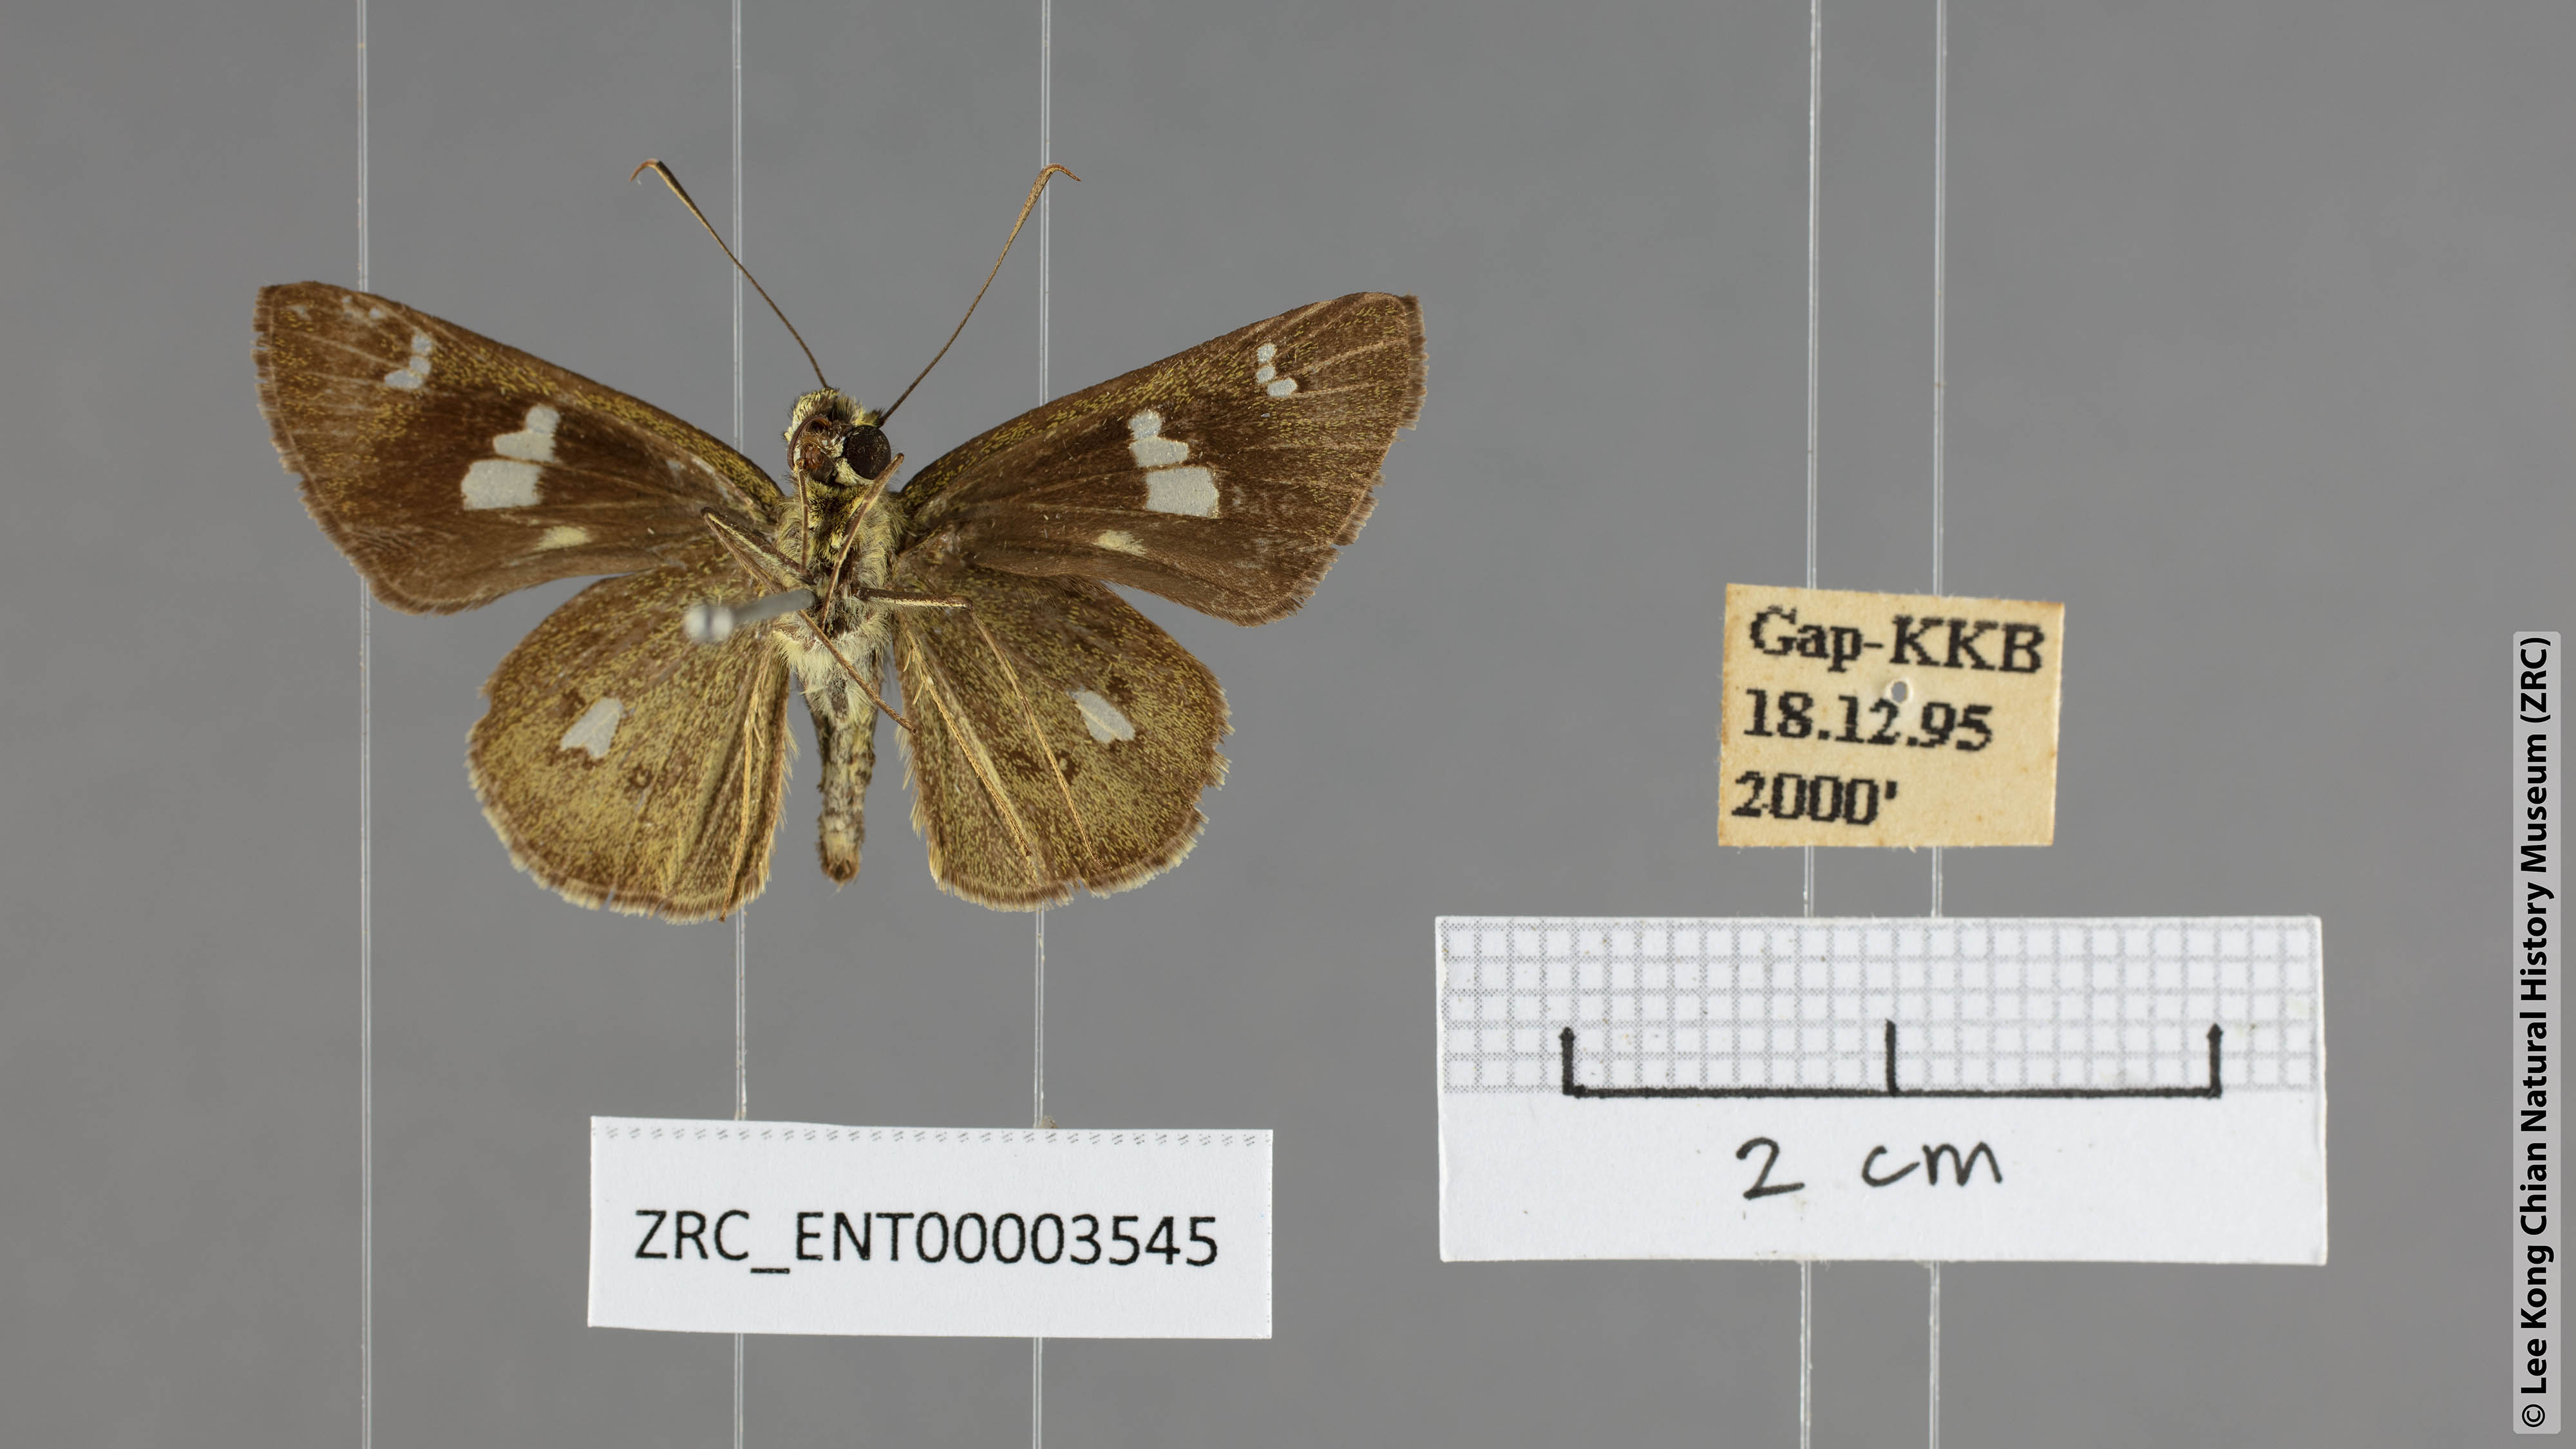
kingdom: Animalia
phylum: Arthropoda
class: Insecta
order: Lepidoptera
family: Hesperiidae
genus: Scobura
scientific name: Scobura phiditia
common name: Malay forest bob
